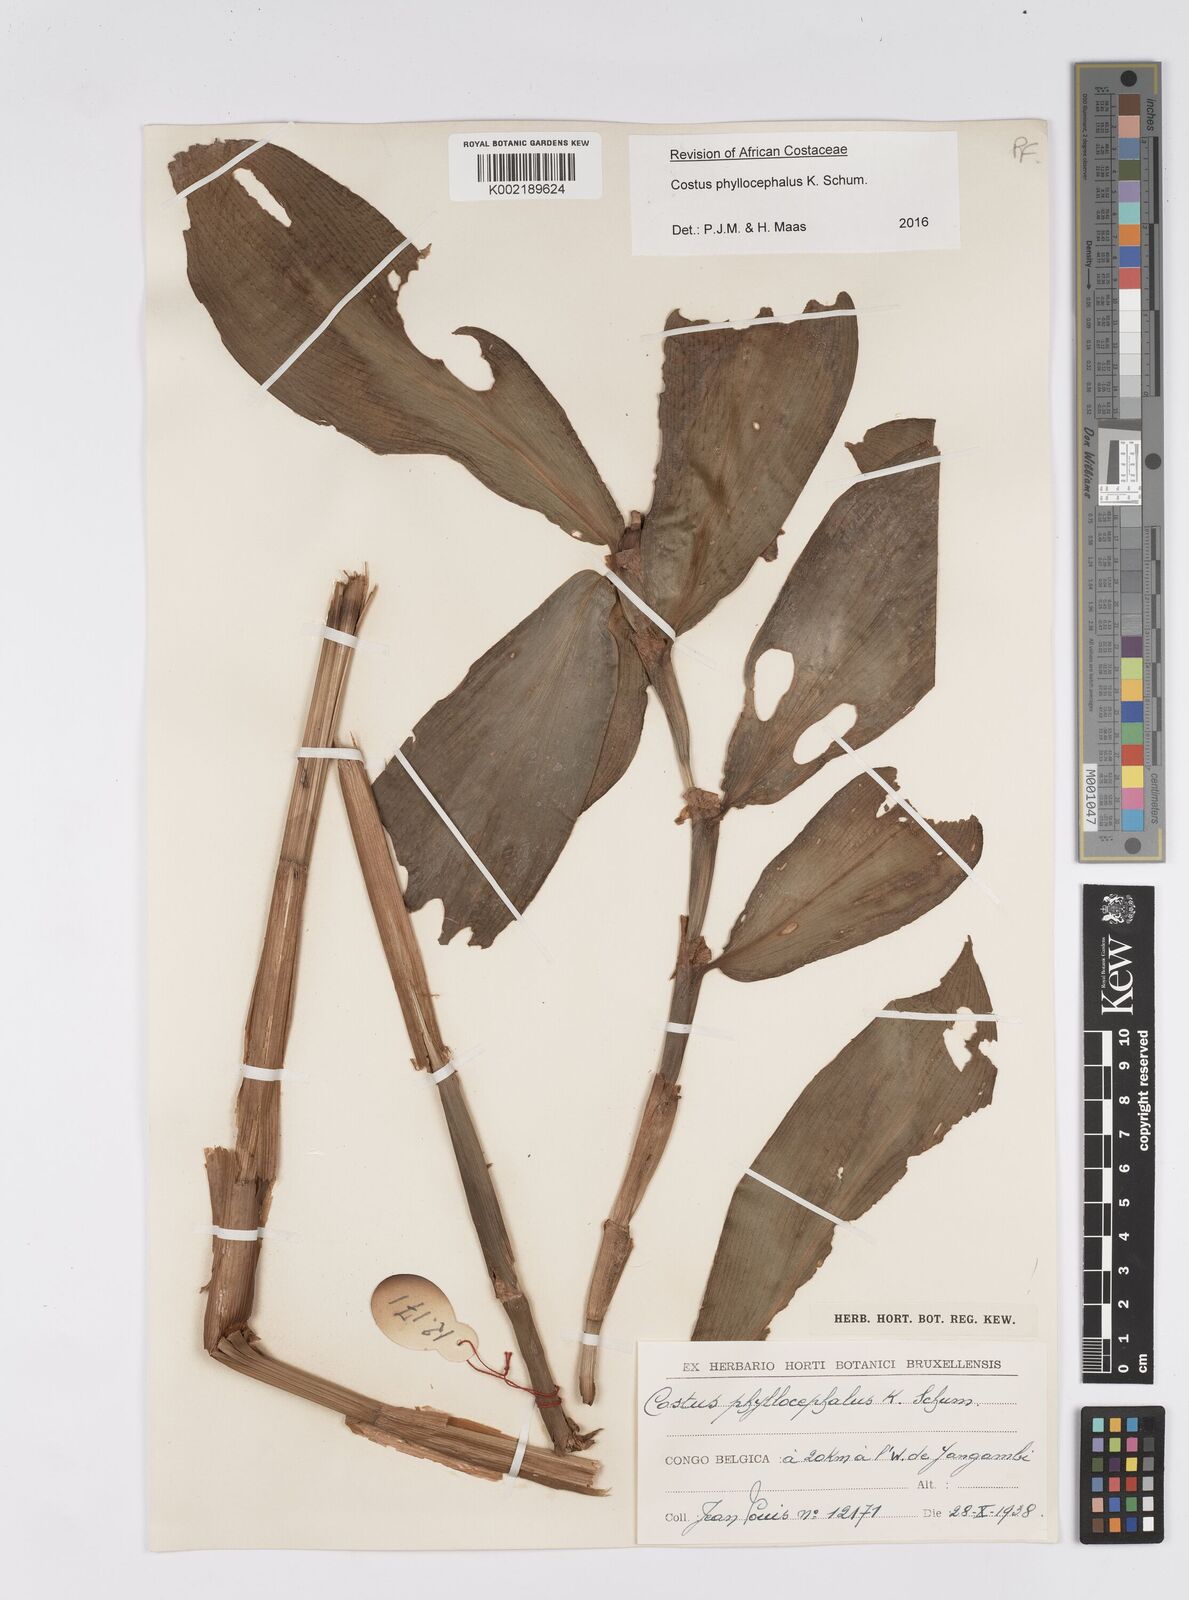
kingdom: Plantae
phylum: Tracheophyta
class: Liliopsida
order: Zingiberales
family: Costaceae
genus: Costus
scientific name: Costus phyllocephalus
